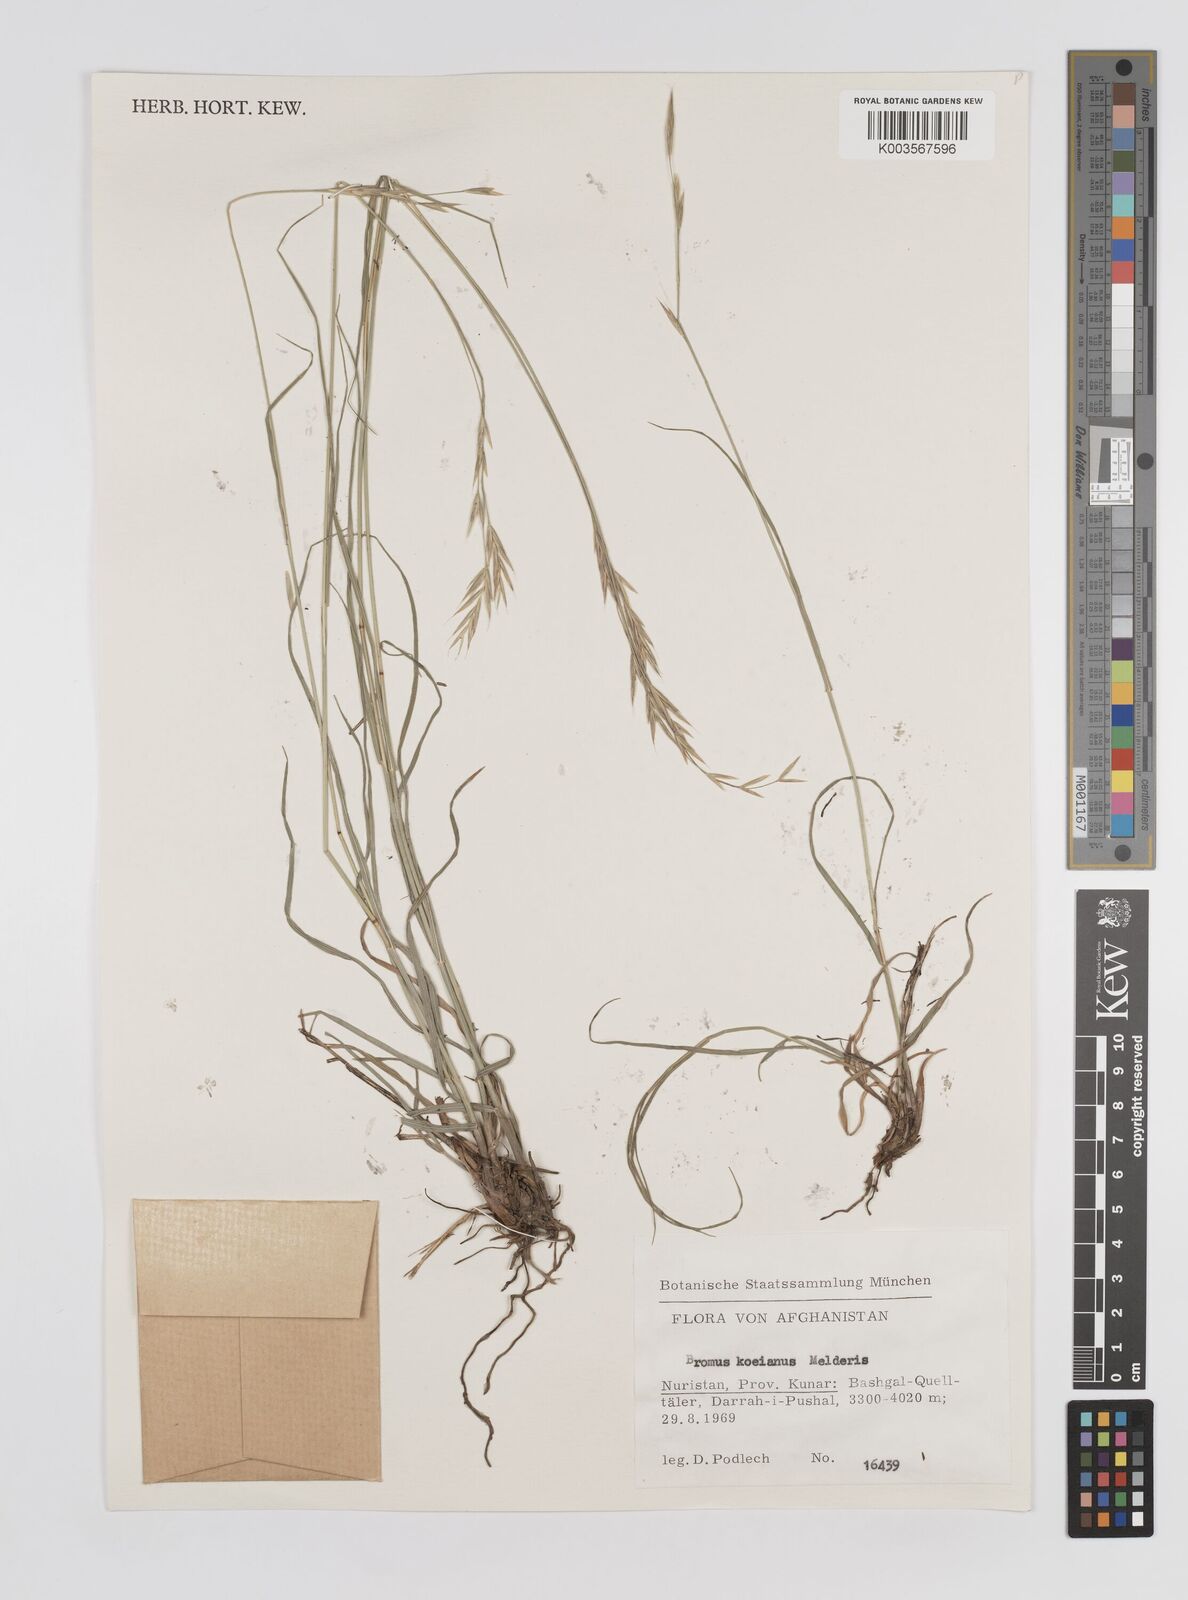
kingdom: Plantae
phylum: Tracheophyta
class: Liliopsida
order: Poales
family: Poaceae
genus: Bromus
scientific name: Bromus koeieanus
